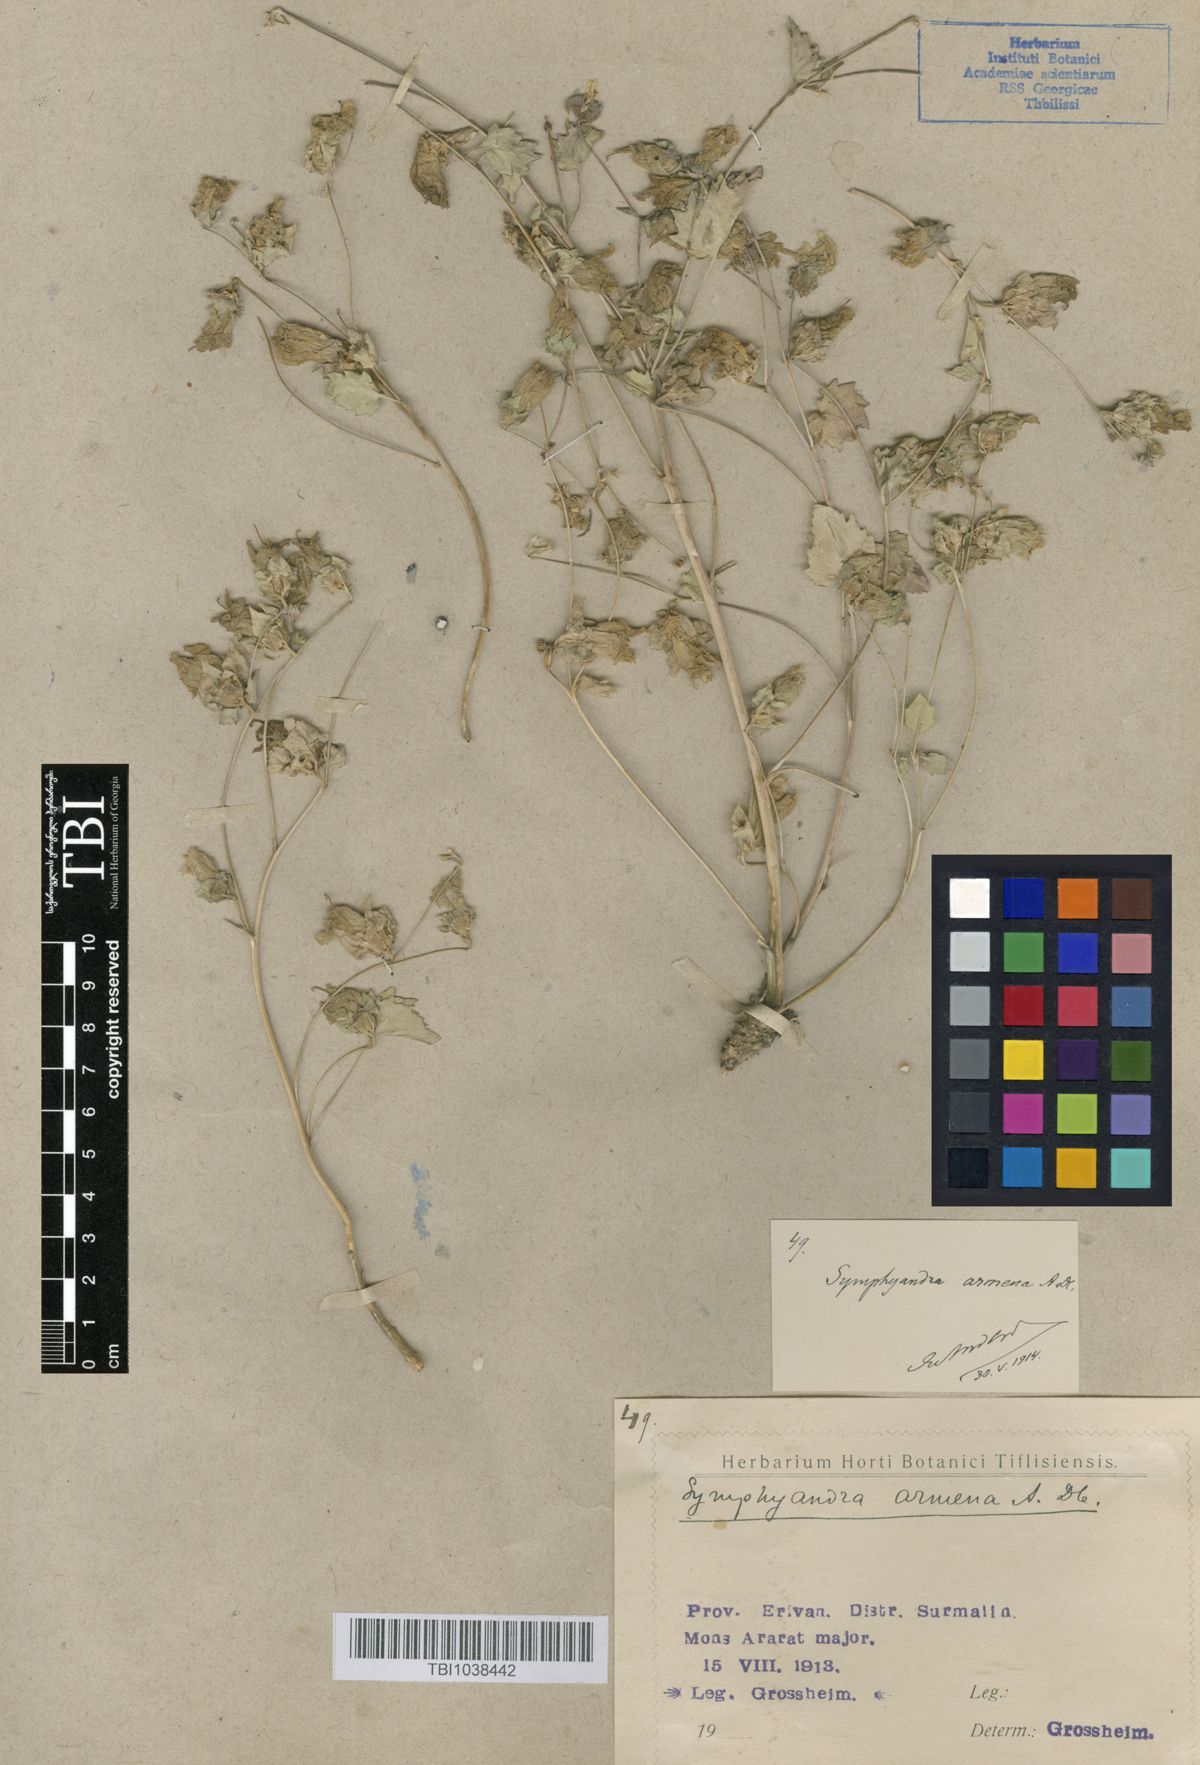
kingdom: Plantae
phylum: Tracheophyta
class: Magnoliopsida
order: Asterales
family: Campanulaceae
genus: Campanula
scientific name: Campanula armena
